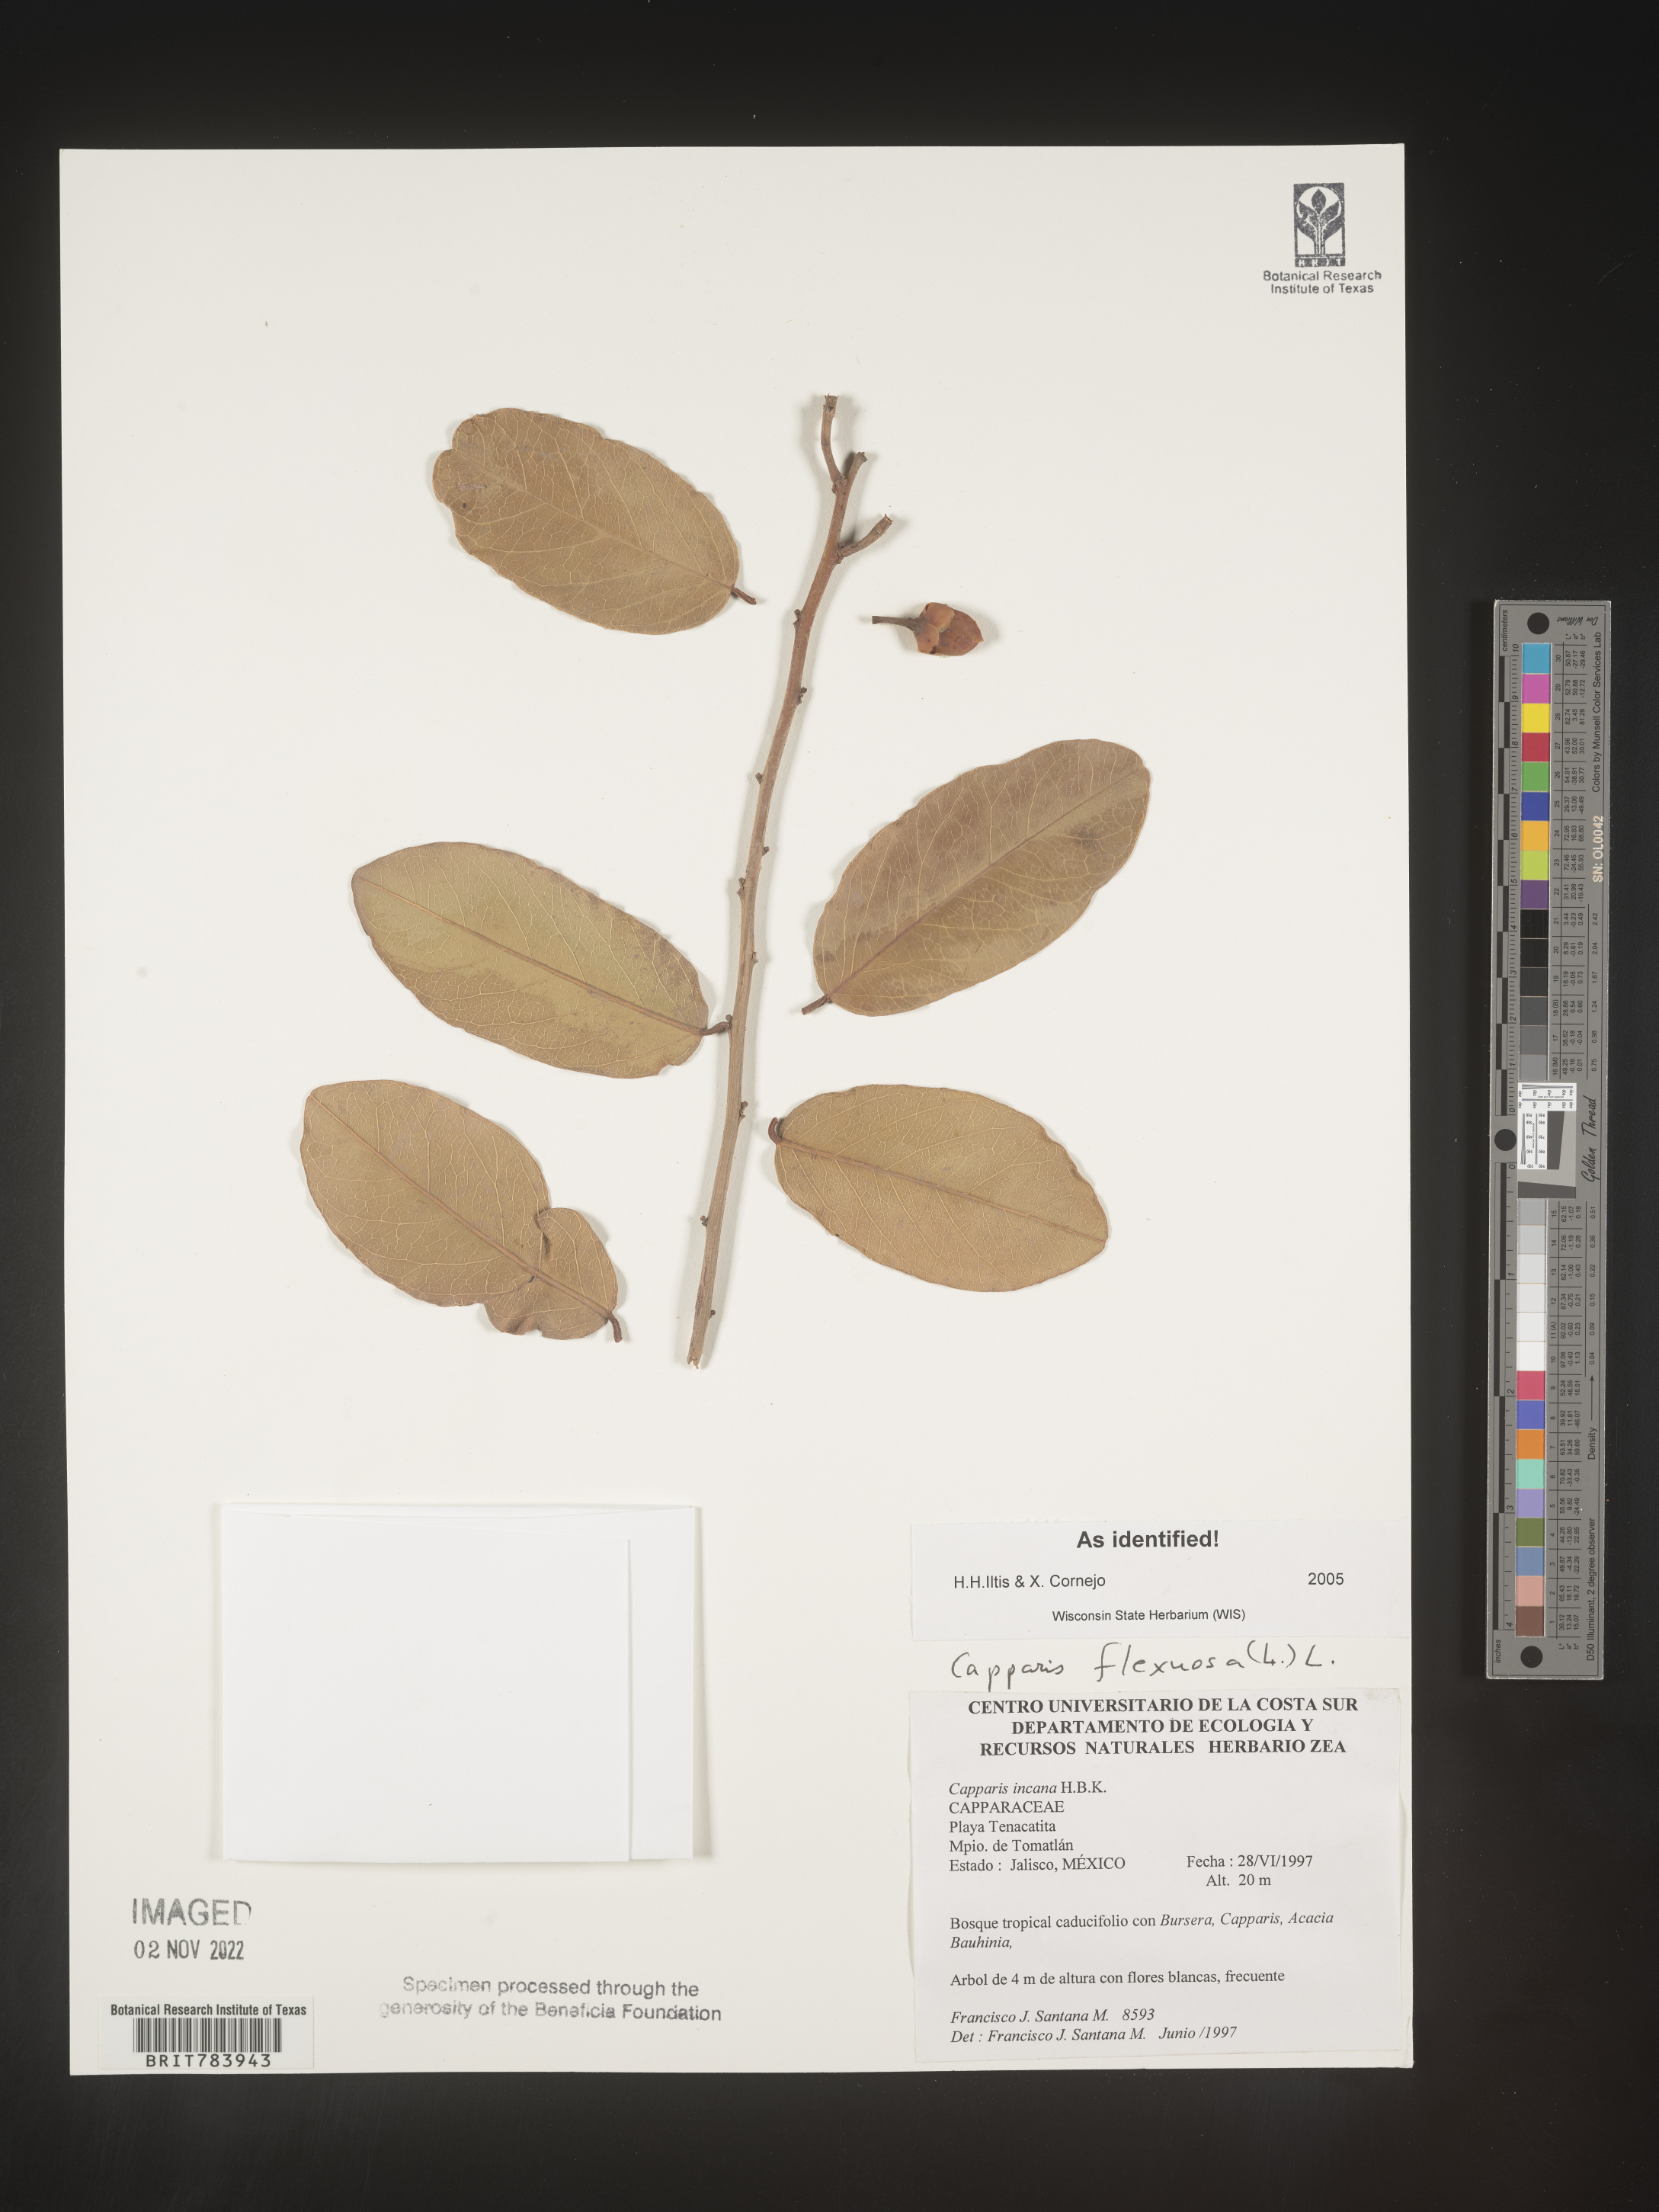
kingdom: Plantae
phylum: Tracheophyta
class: Magnoliopsida
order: Brassicales
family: Capparaceae
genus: Capparis
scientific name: Capparis
